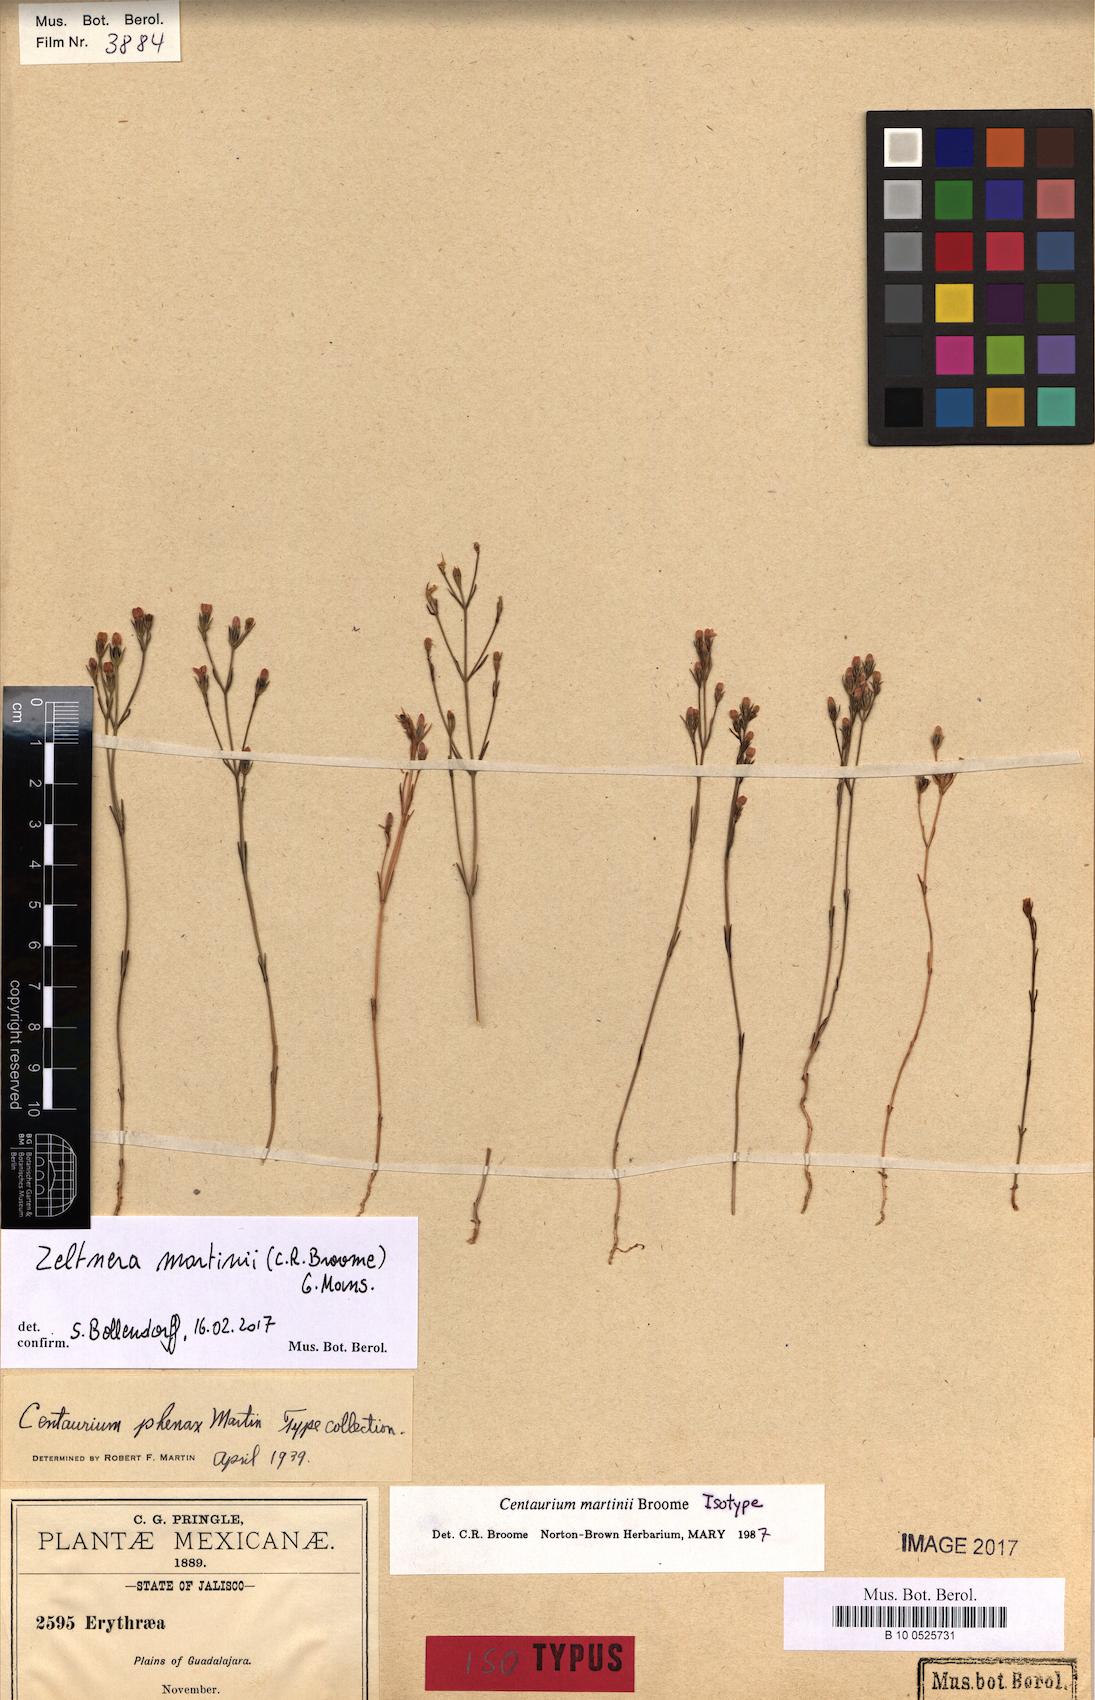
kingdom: Plantae
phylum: Tracheophyta
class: Magnoliopsida
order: Gentianales
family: Gentianaceae
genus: Zeltnera
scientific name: Zeltnera
